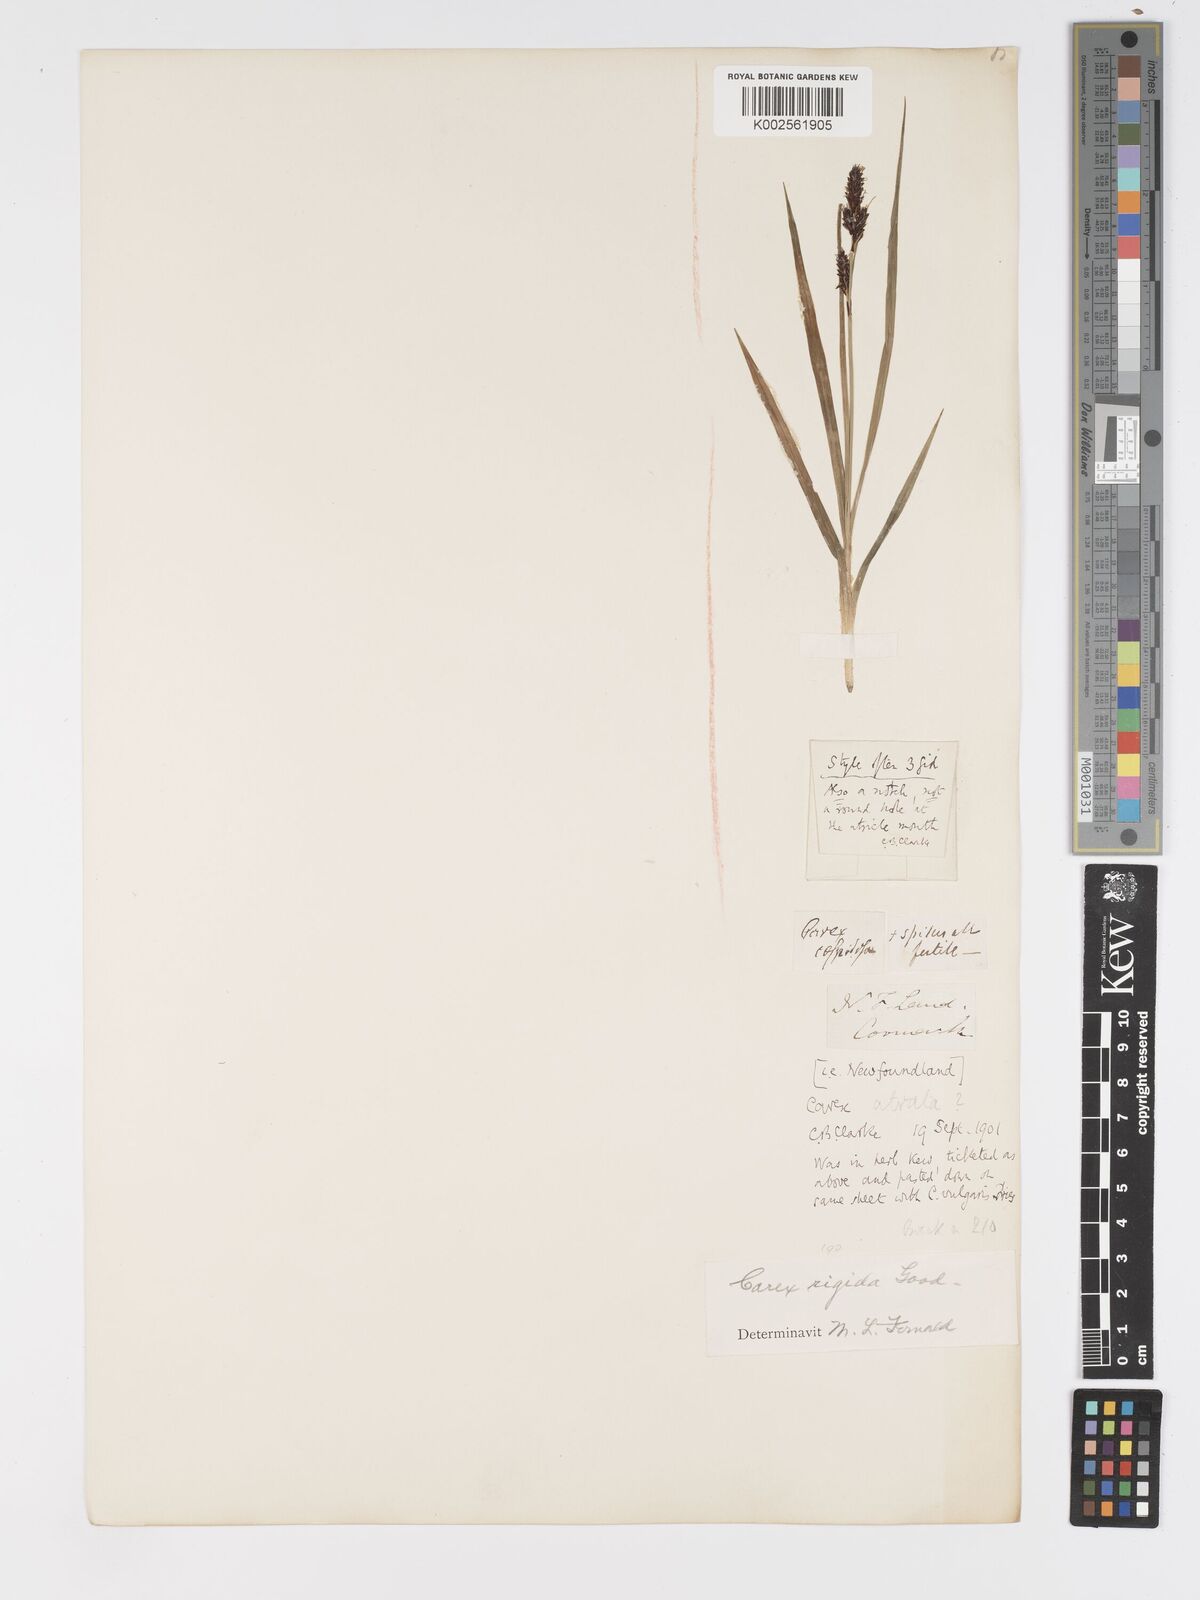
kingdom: Plantae
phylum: Tracheophyta
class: Liliopsida
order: Poales
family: Cyperaceae
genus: Carex
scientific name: Carex bigelowii
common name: Stiff sedge
